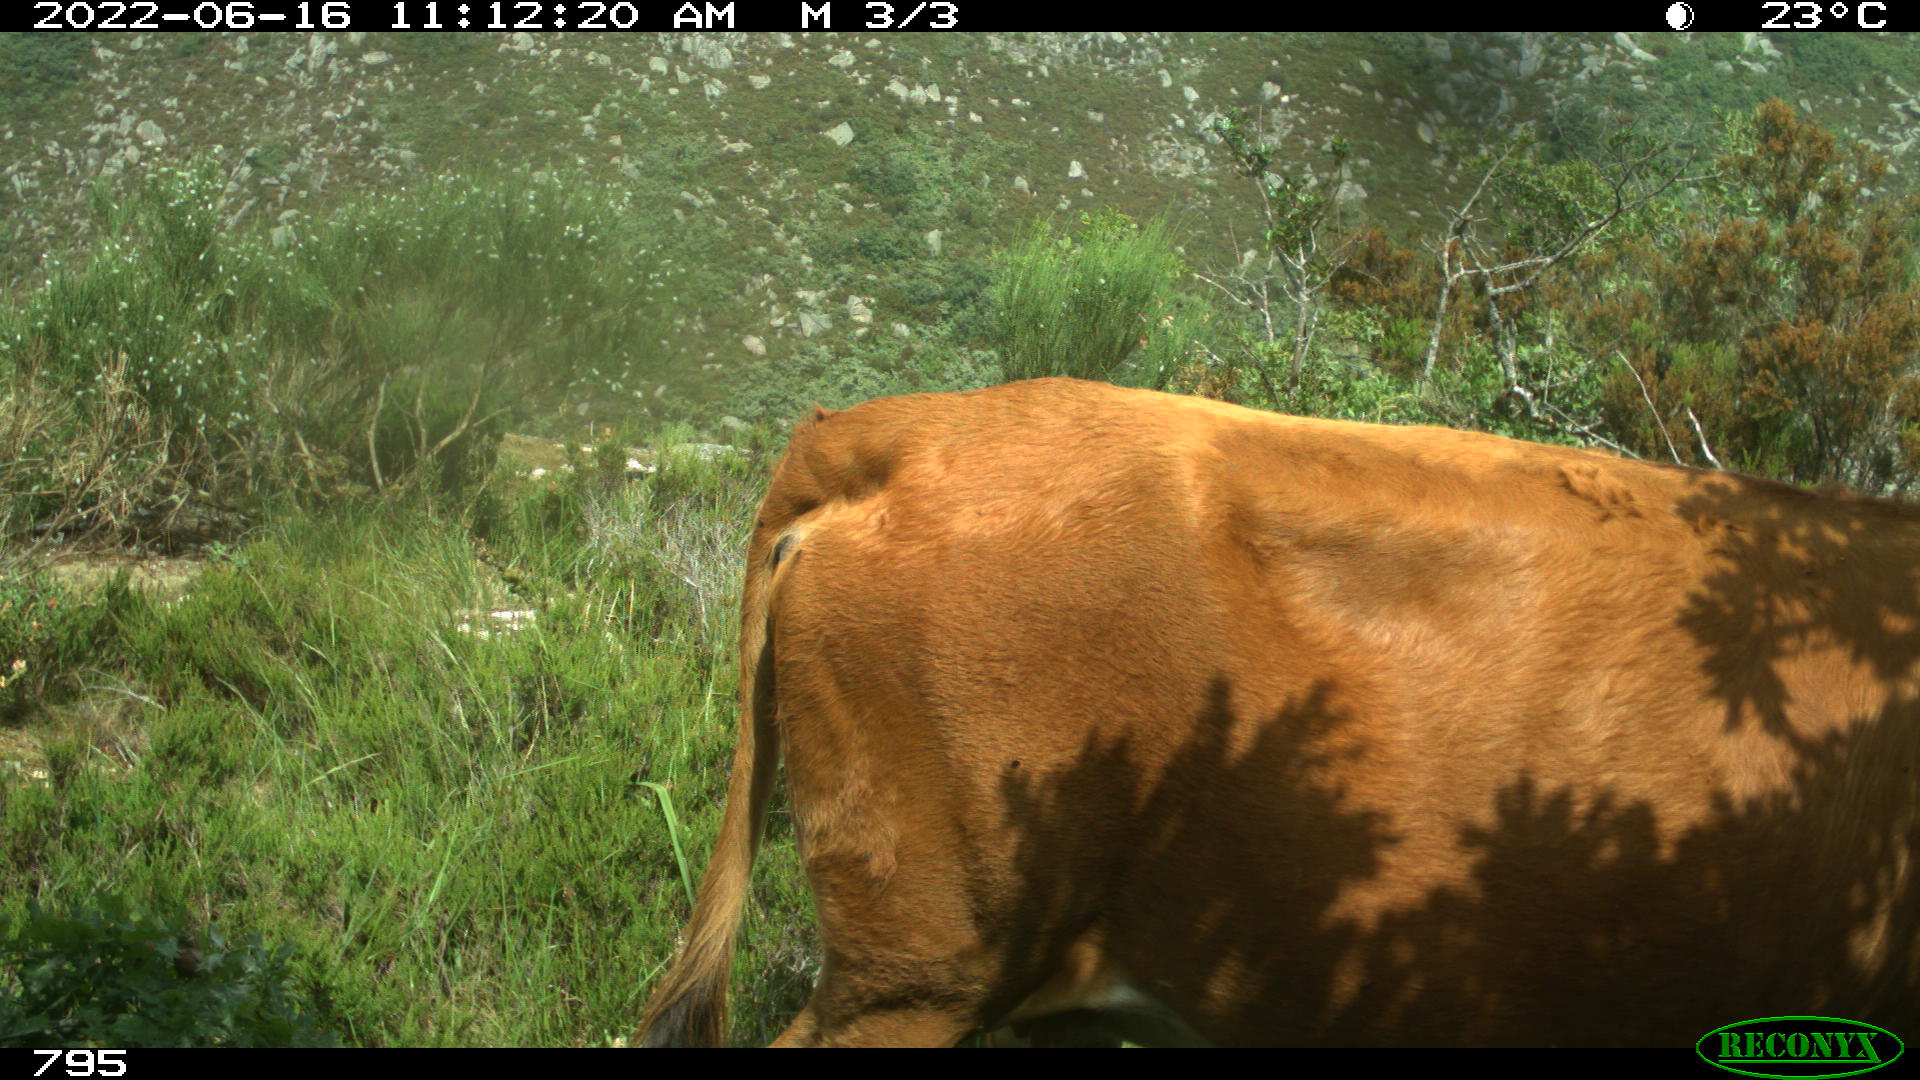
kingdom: Animalia
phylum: Chordata
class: Mammalia
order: Artiodactyla
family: Bovidae
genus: Bos
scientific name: Bos taurus
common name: Domesticated cattle
